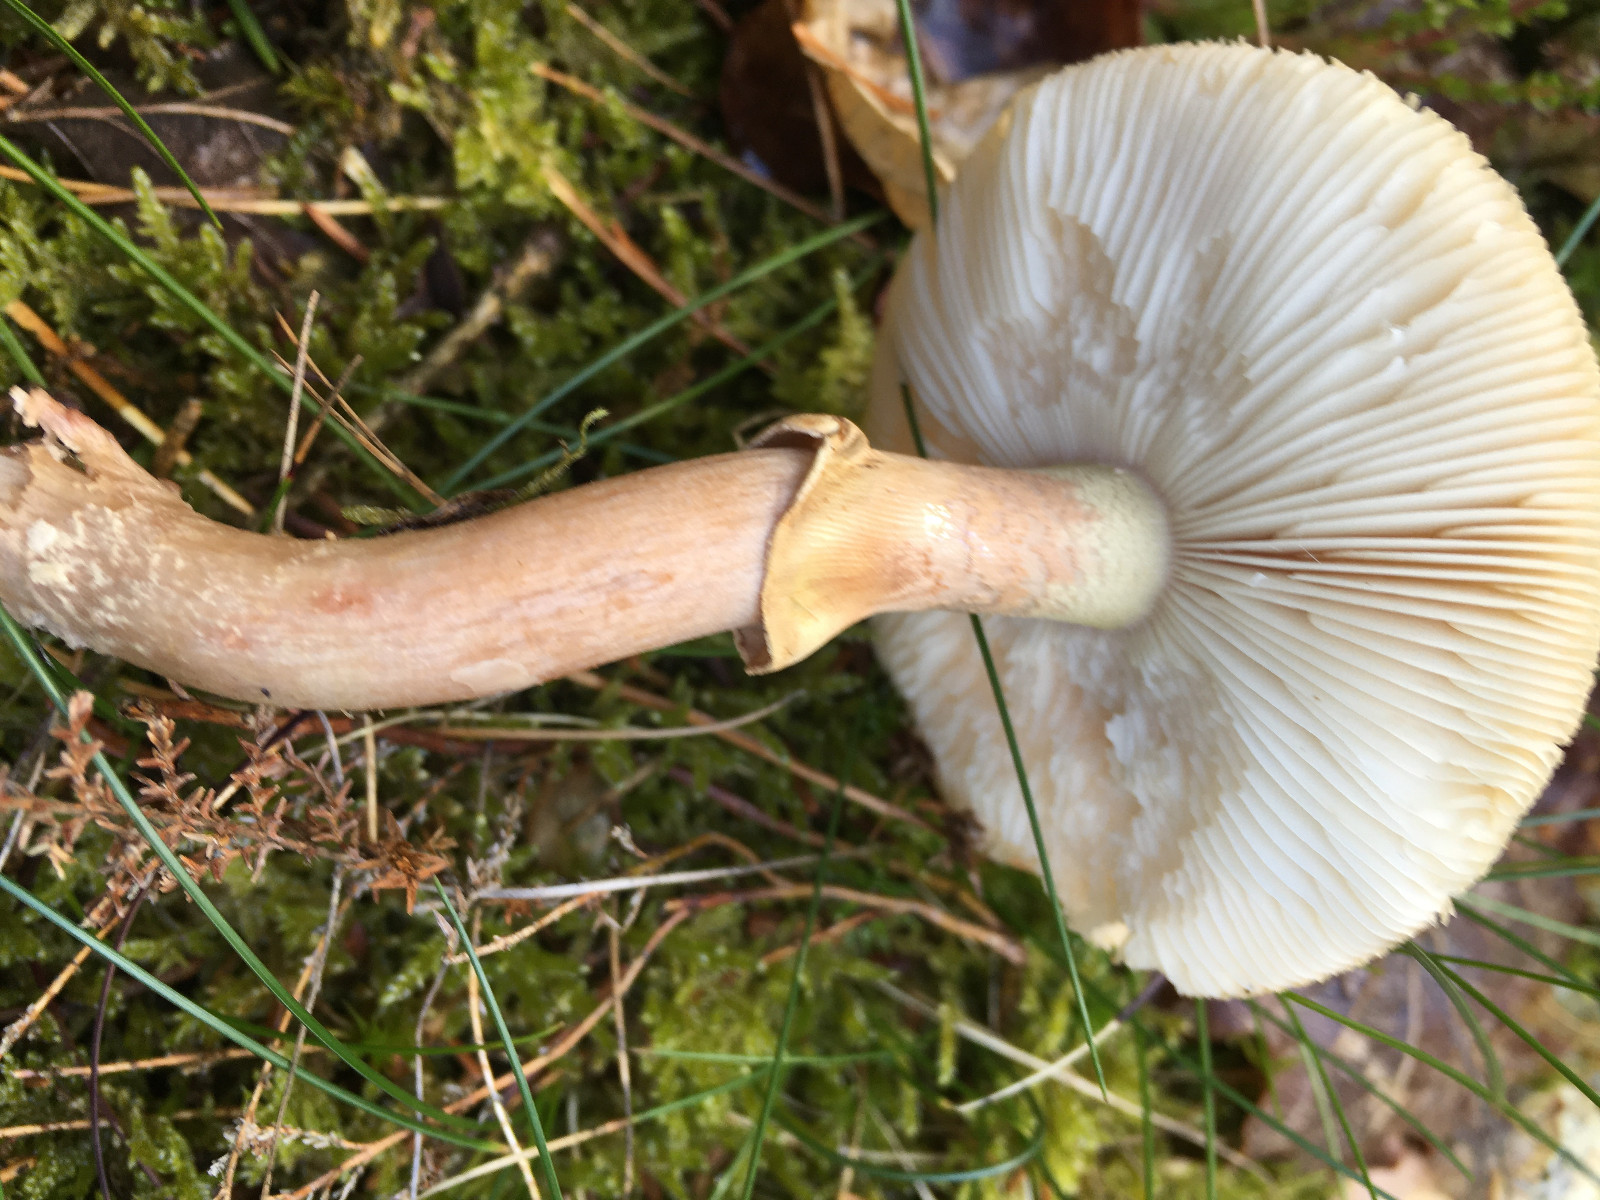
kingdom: Fungi
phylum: Basidiomycota
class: Agaricomycetes
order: Agaricales
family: Amanitaceae
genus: Amanita
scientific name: Amanita rubescens
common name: Blusher
